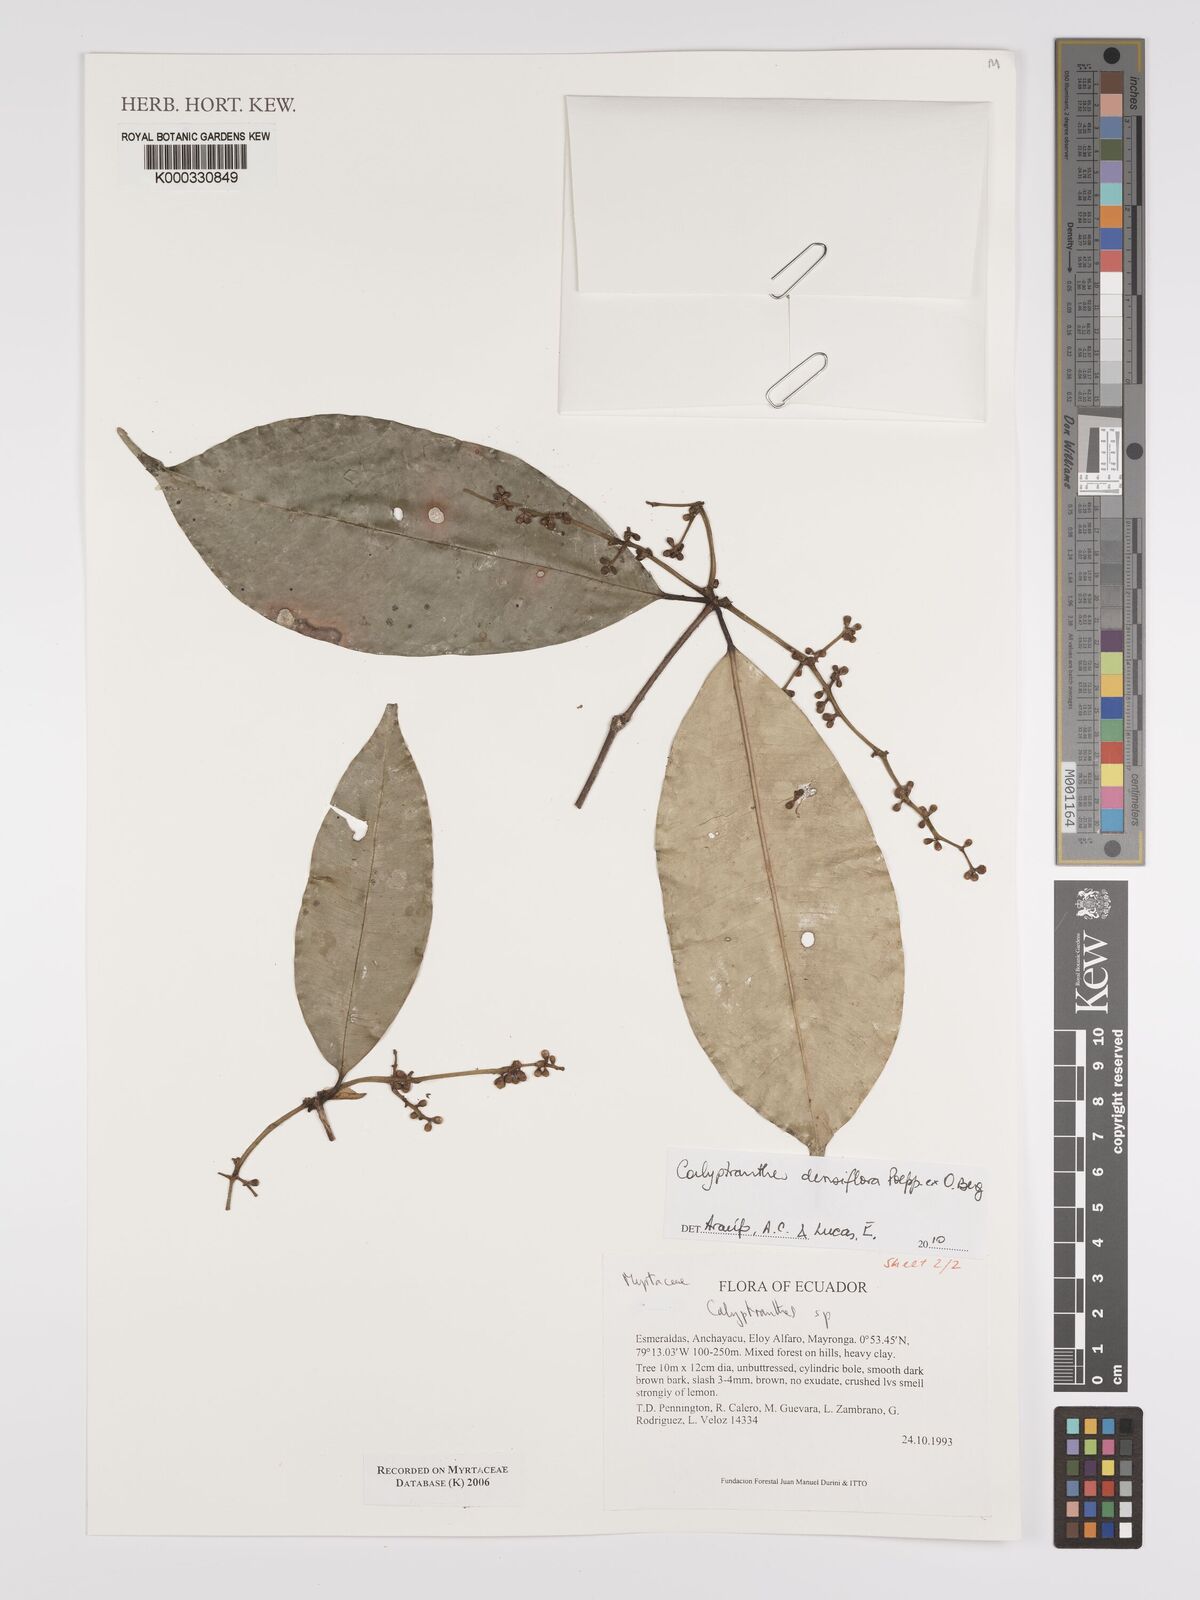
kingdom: Plantae
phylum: Tracheophyta
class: Magnoliopsida
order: Myrtales
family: Myrtaceae
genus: Calyptranthes
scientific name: Calyptranthes
